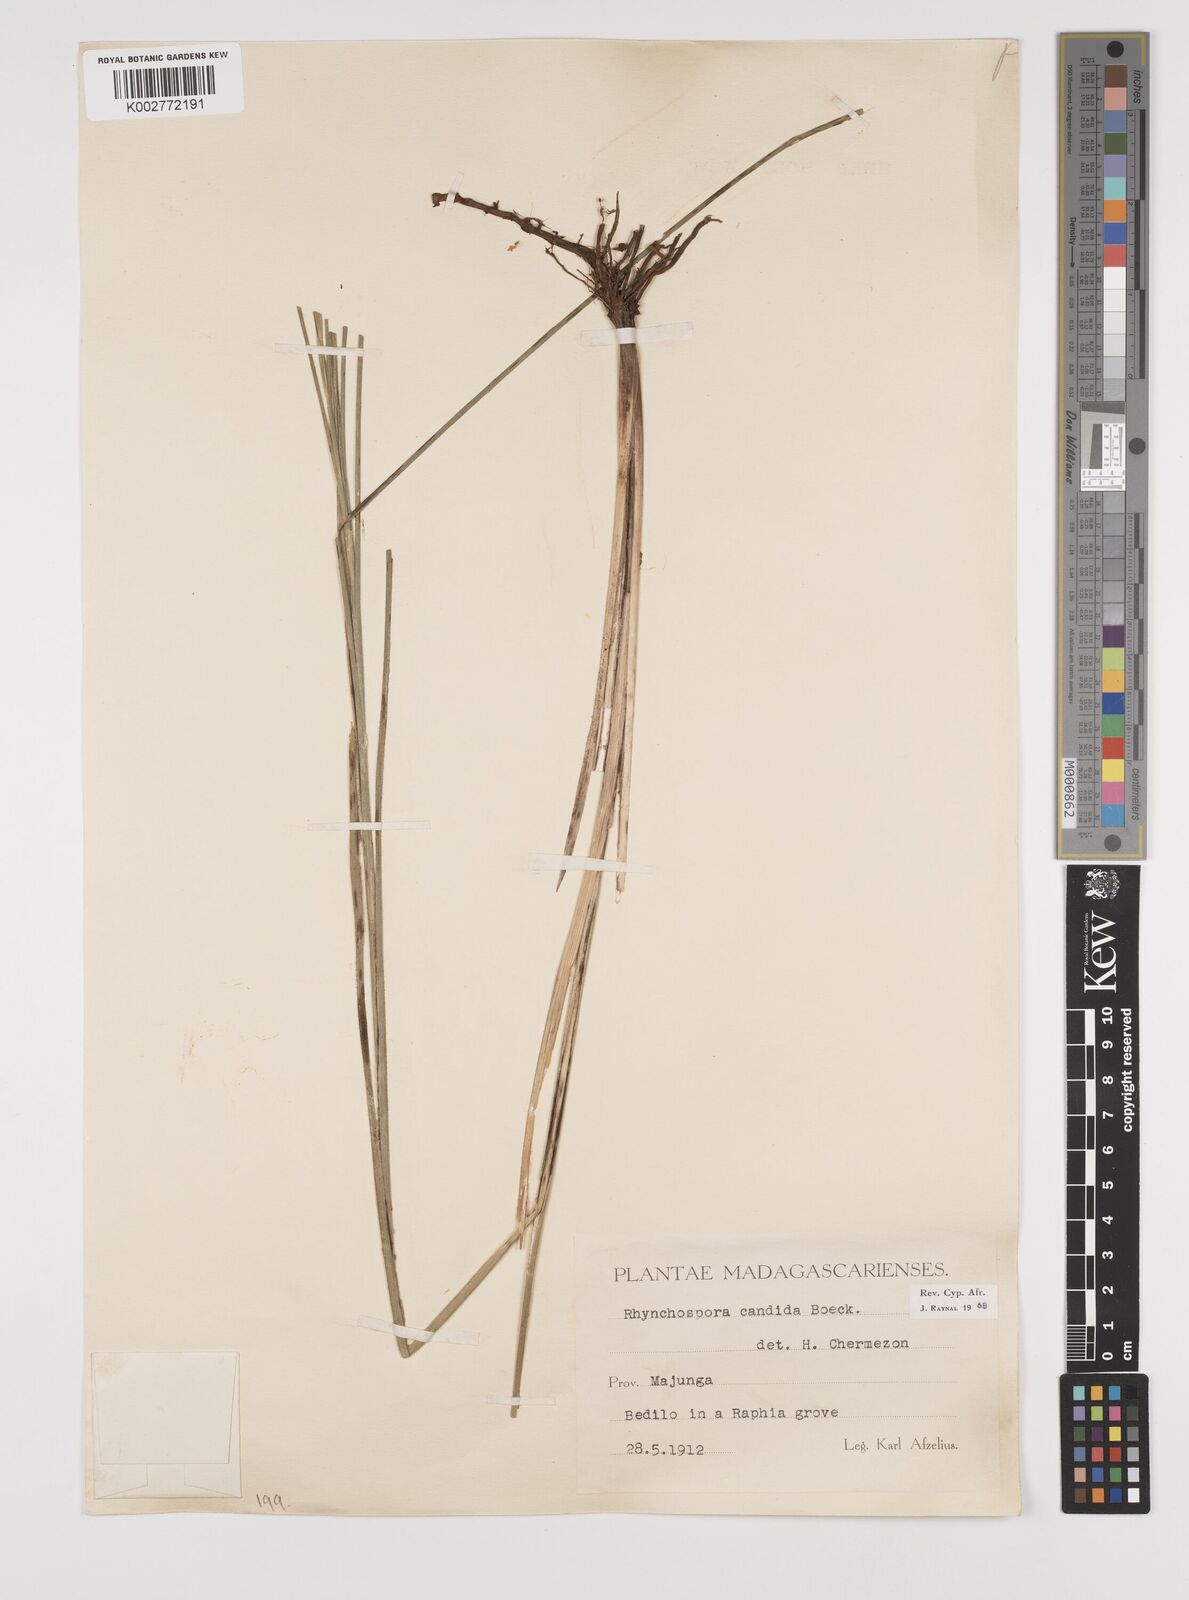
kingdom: Plantae
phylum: Tracheophyta
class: Liliopsida
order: Poales
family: Cyperaceae
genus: Rhynchospora
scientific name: Rhynchospora candida
